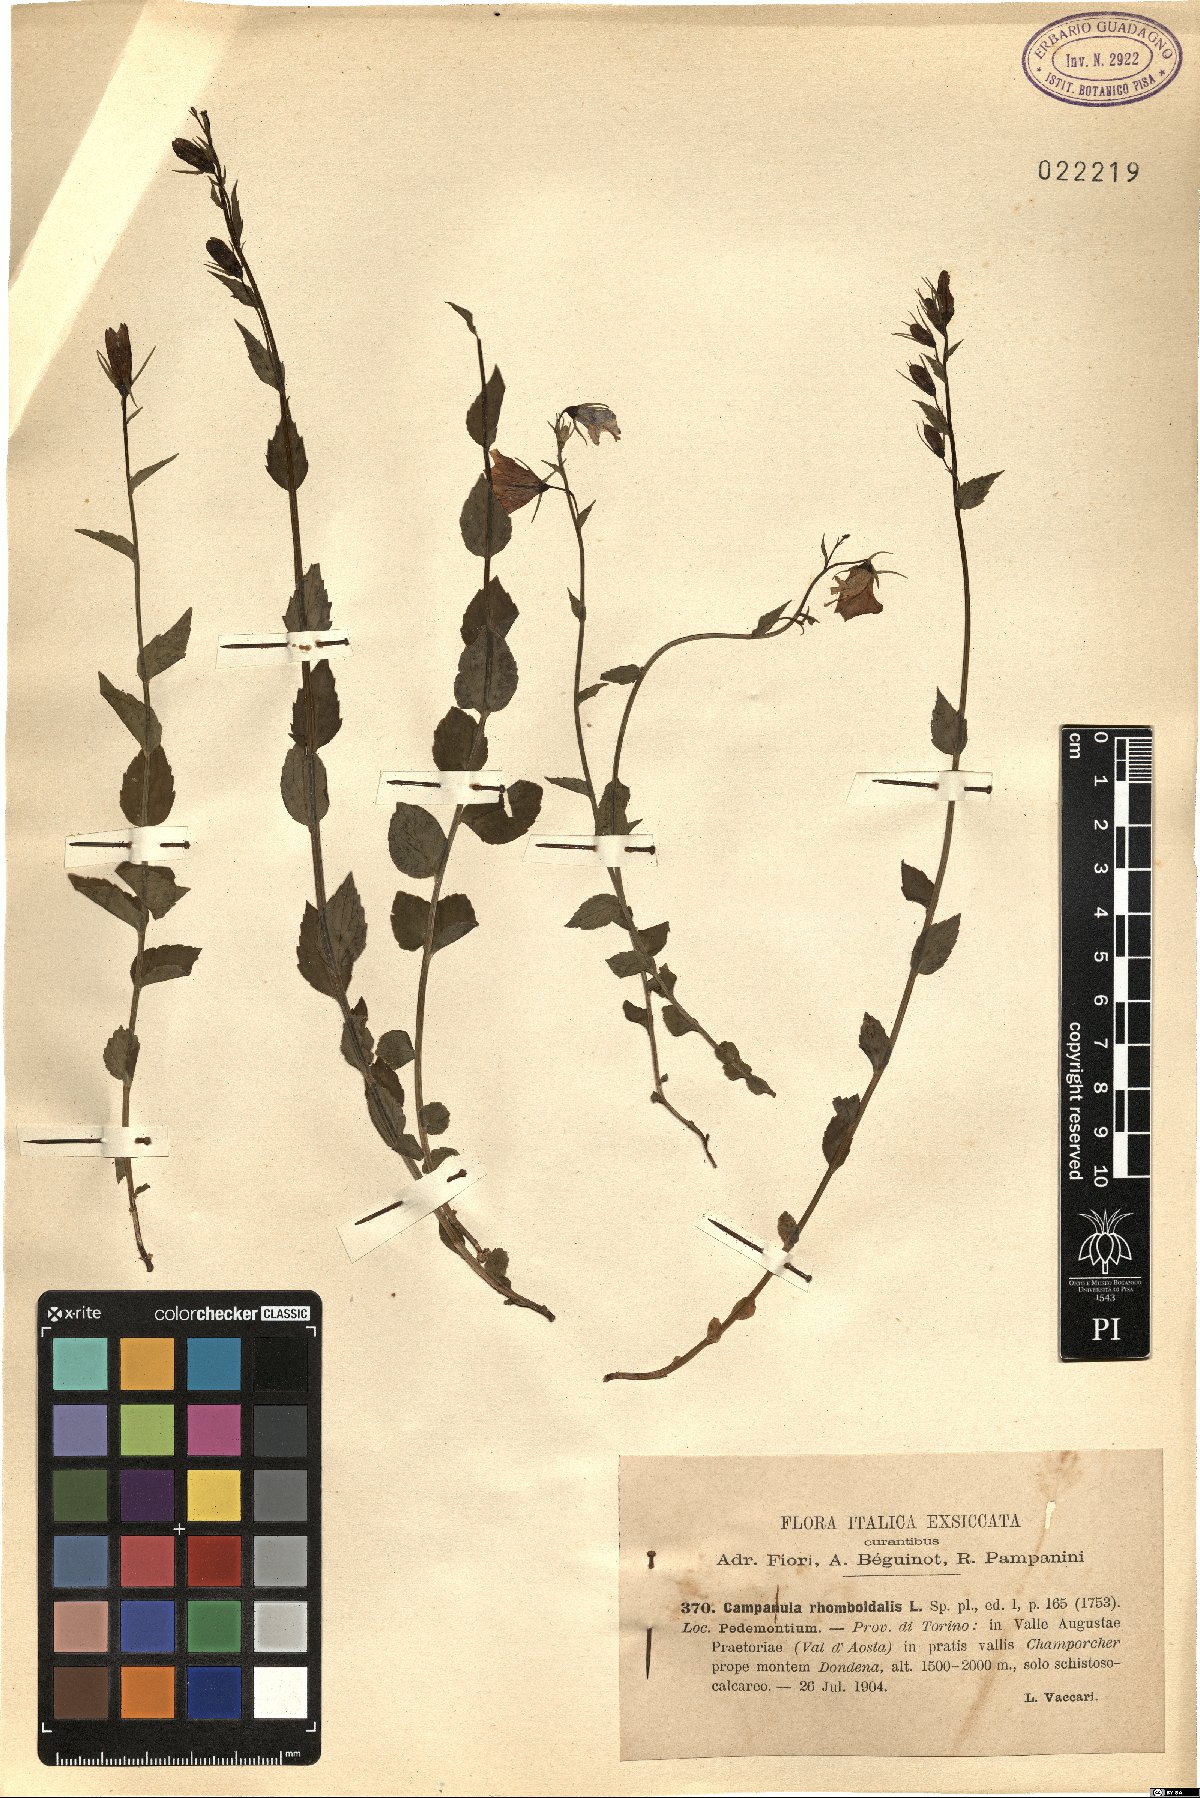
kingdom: Plantae
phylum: Tracheophyta
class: Magnoliopsida
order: Asterales
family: Campanulaceae
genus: Campanula
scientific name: Campanula rhomboidalis
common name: Broad-leaved harebell
